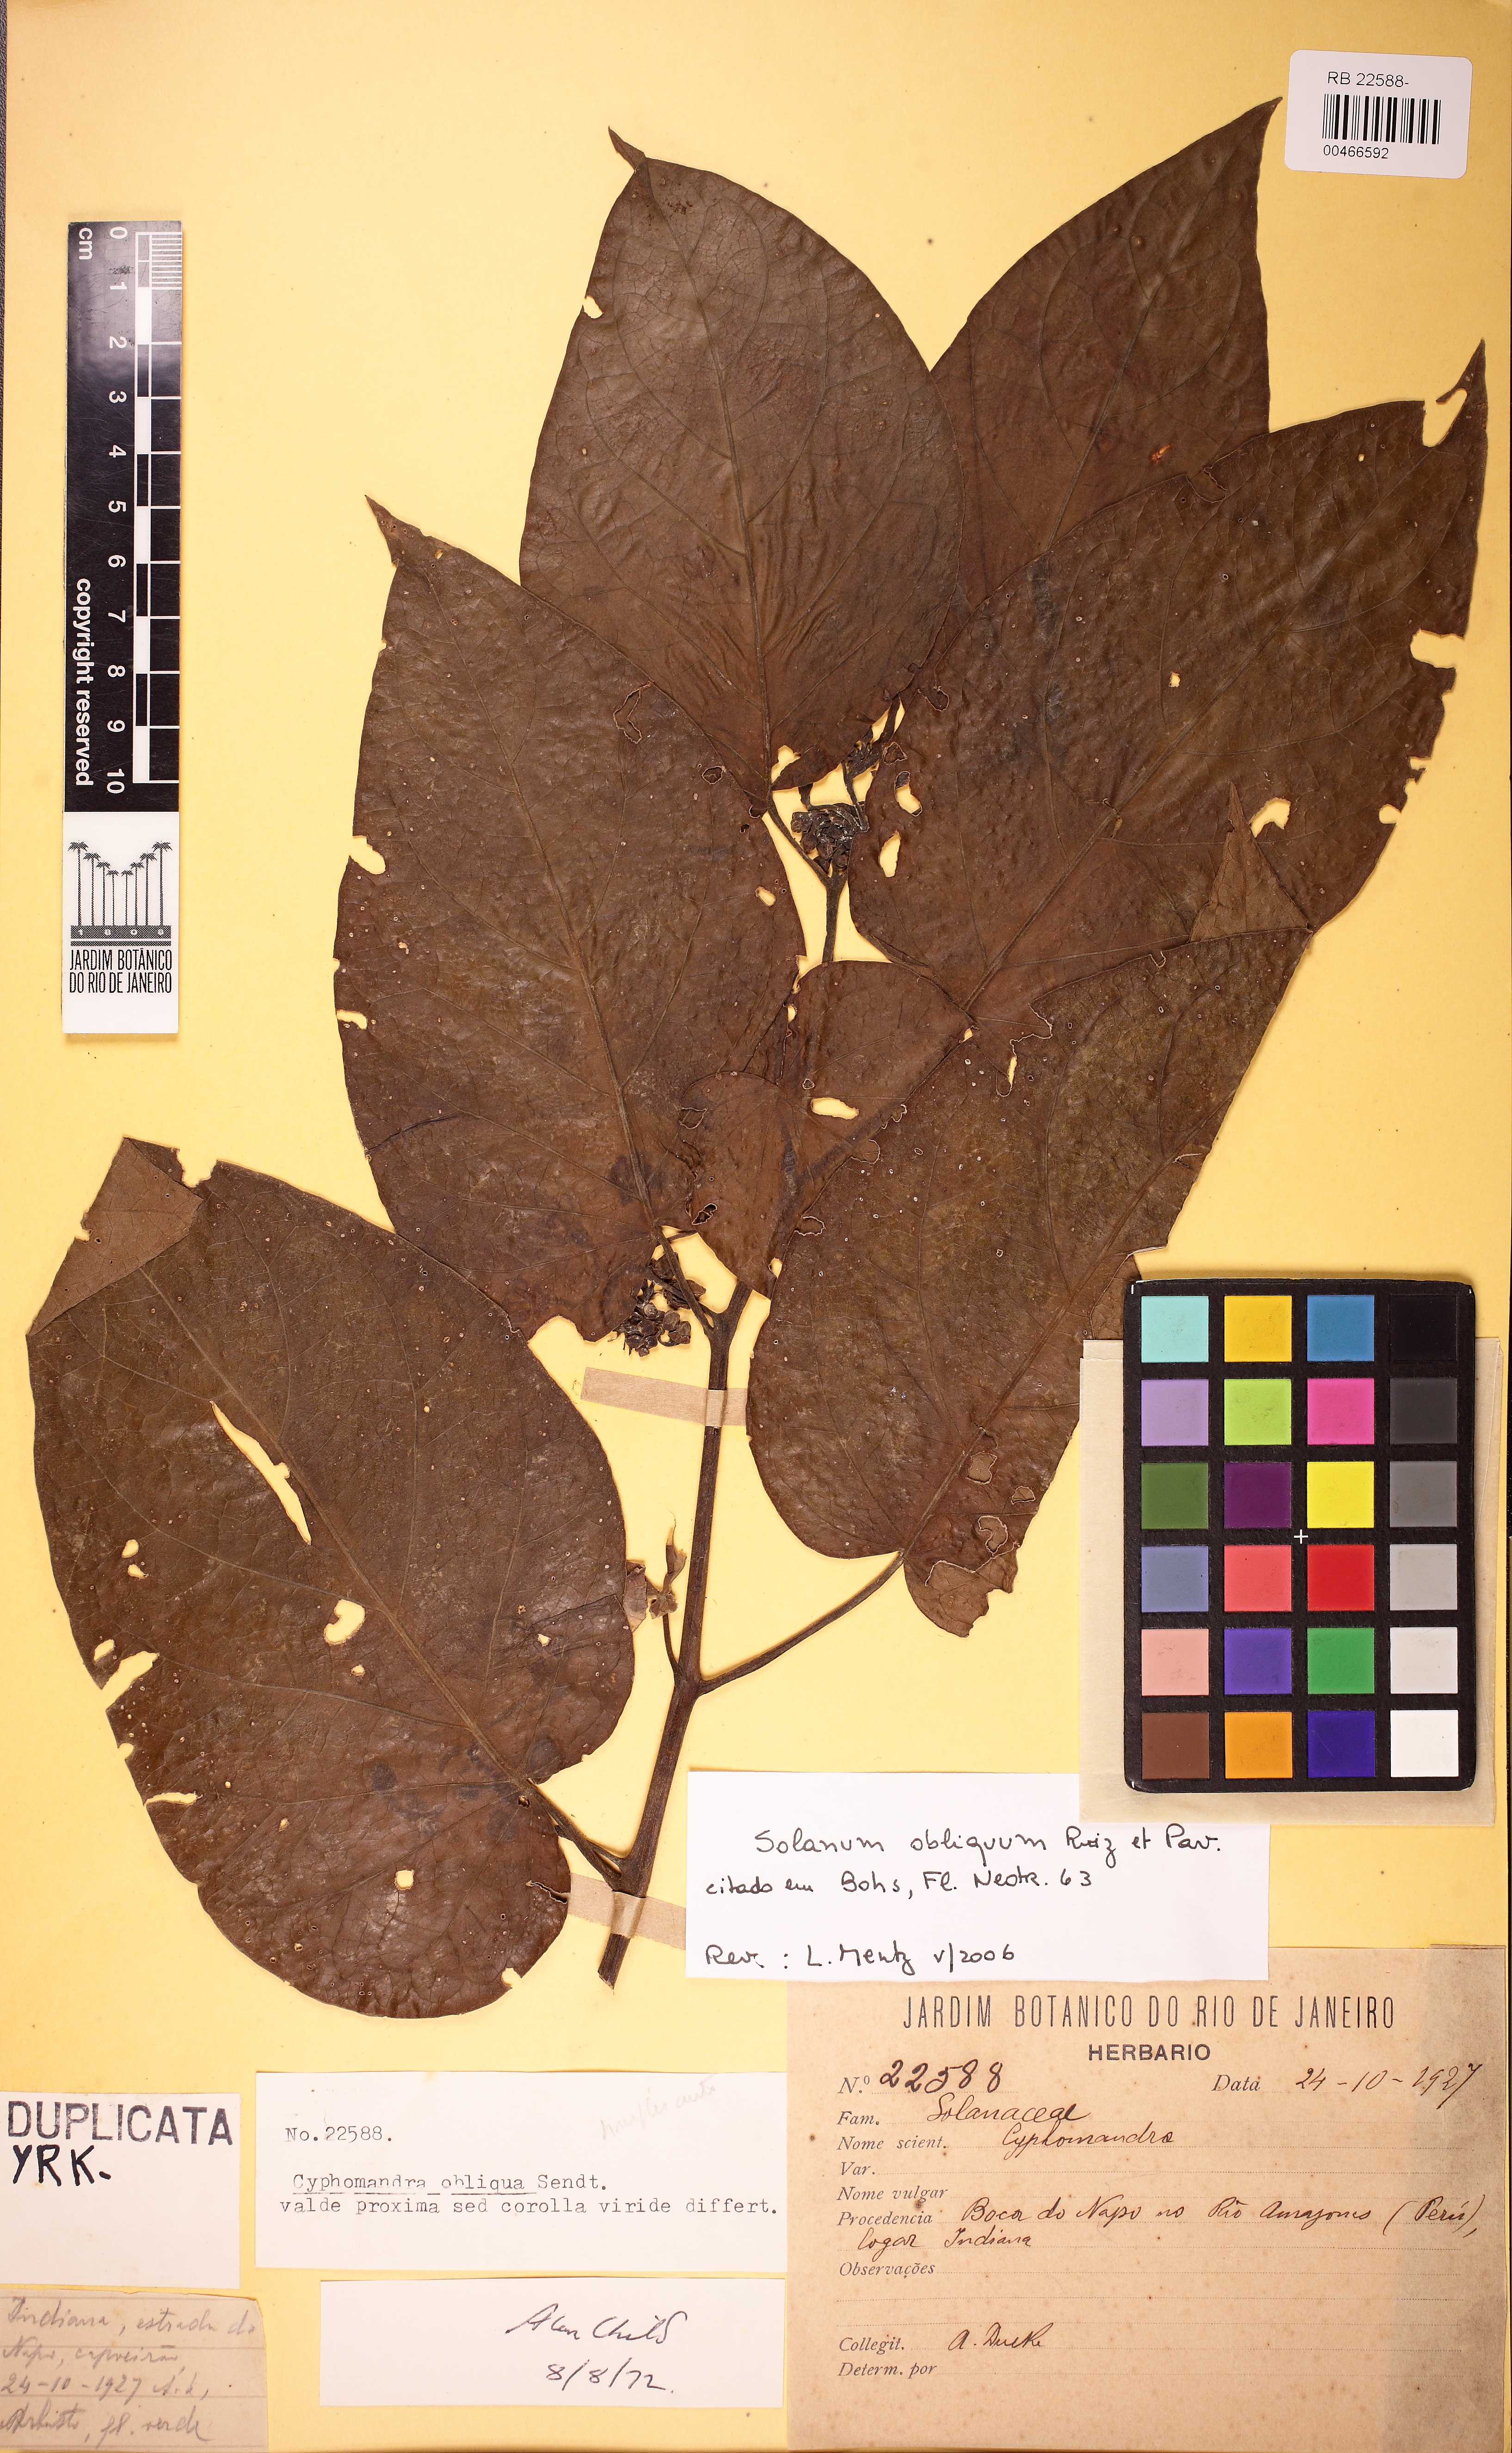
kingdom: Plantae
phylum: Tracheophyta
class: Magnoliopsida
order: Solanales
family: Solanaceae
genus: Solanum
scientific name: Solanum obliquum
